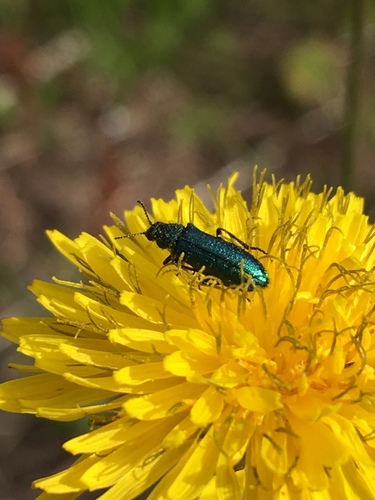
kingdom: Animalia
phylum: Arthropoda
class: Insecta
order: Coleoptera
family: Melyridae
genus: Psilothrix
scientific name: Psilothrix
